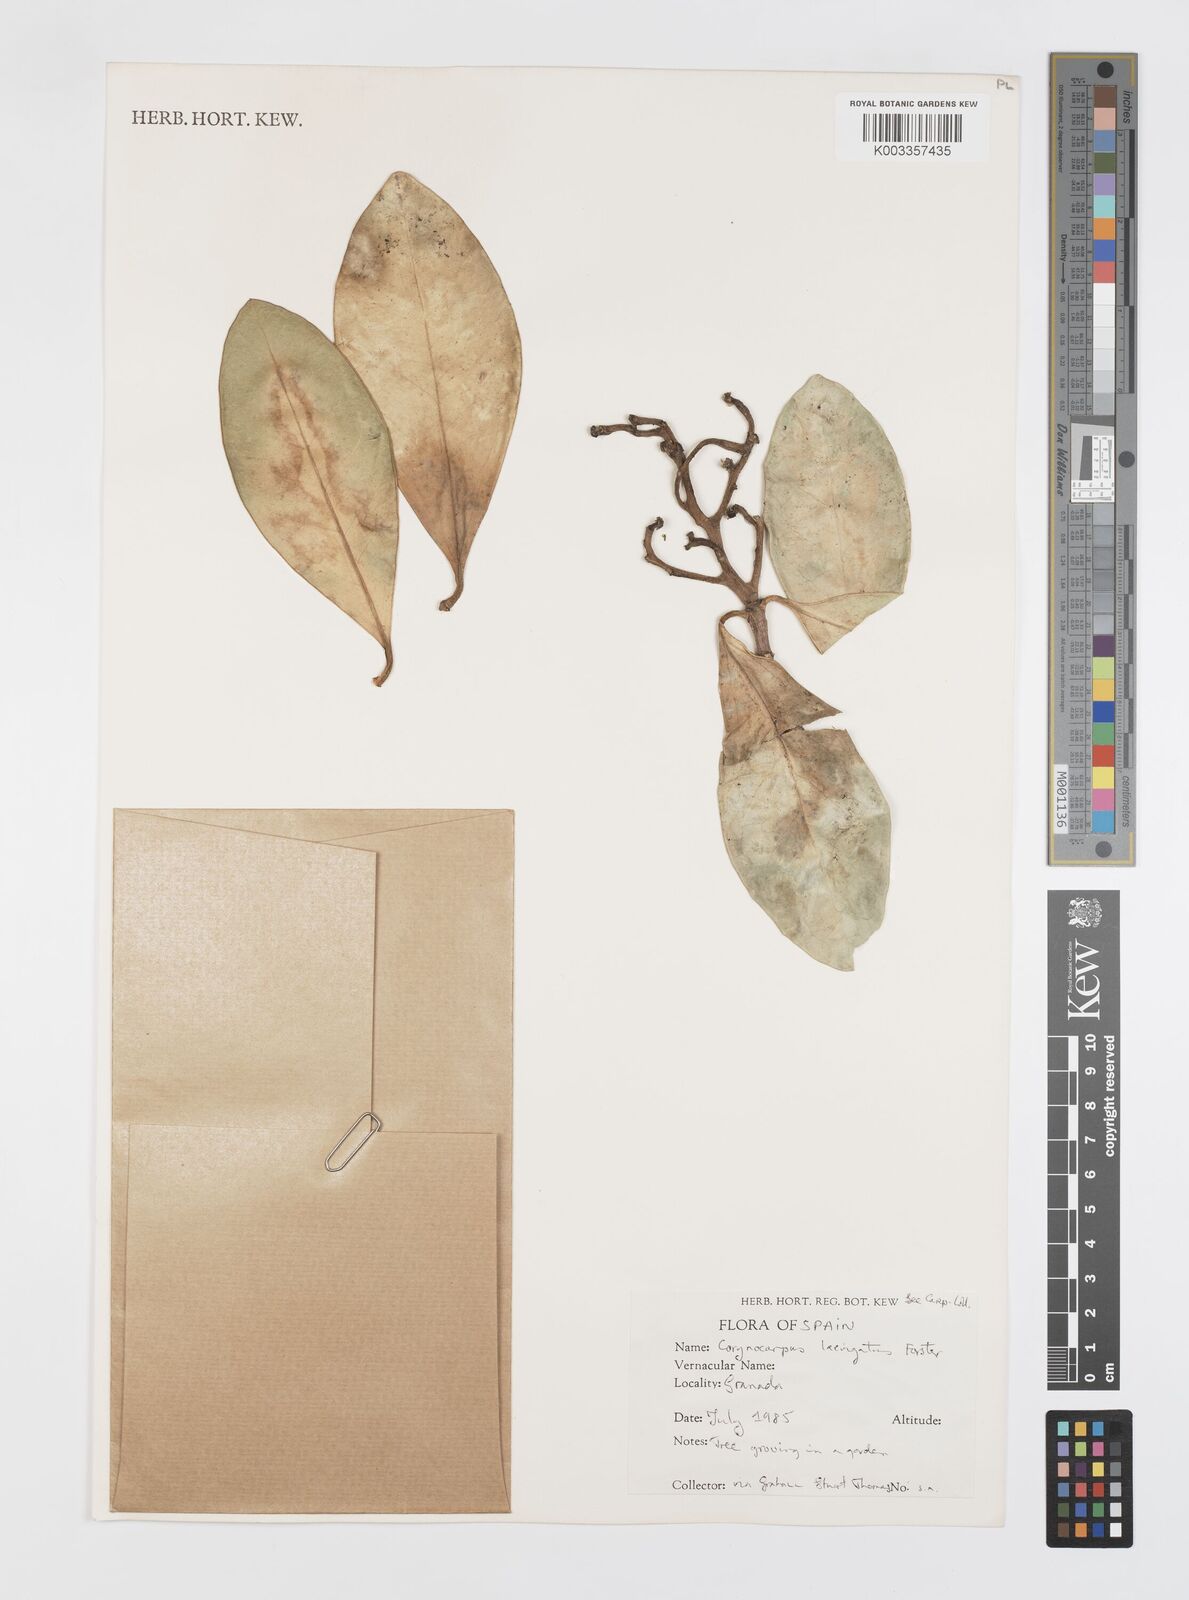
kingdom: Plantae
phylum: Tracheophyta
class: Magnoliopsida
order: Cucurbitales
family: Corynocarpaceae
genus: Corynocarpus
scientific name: Corynocarpus laevigatus
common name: New zealand laurel
